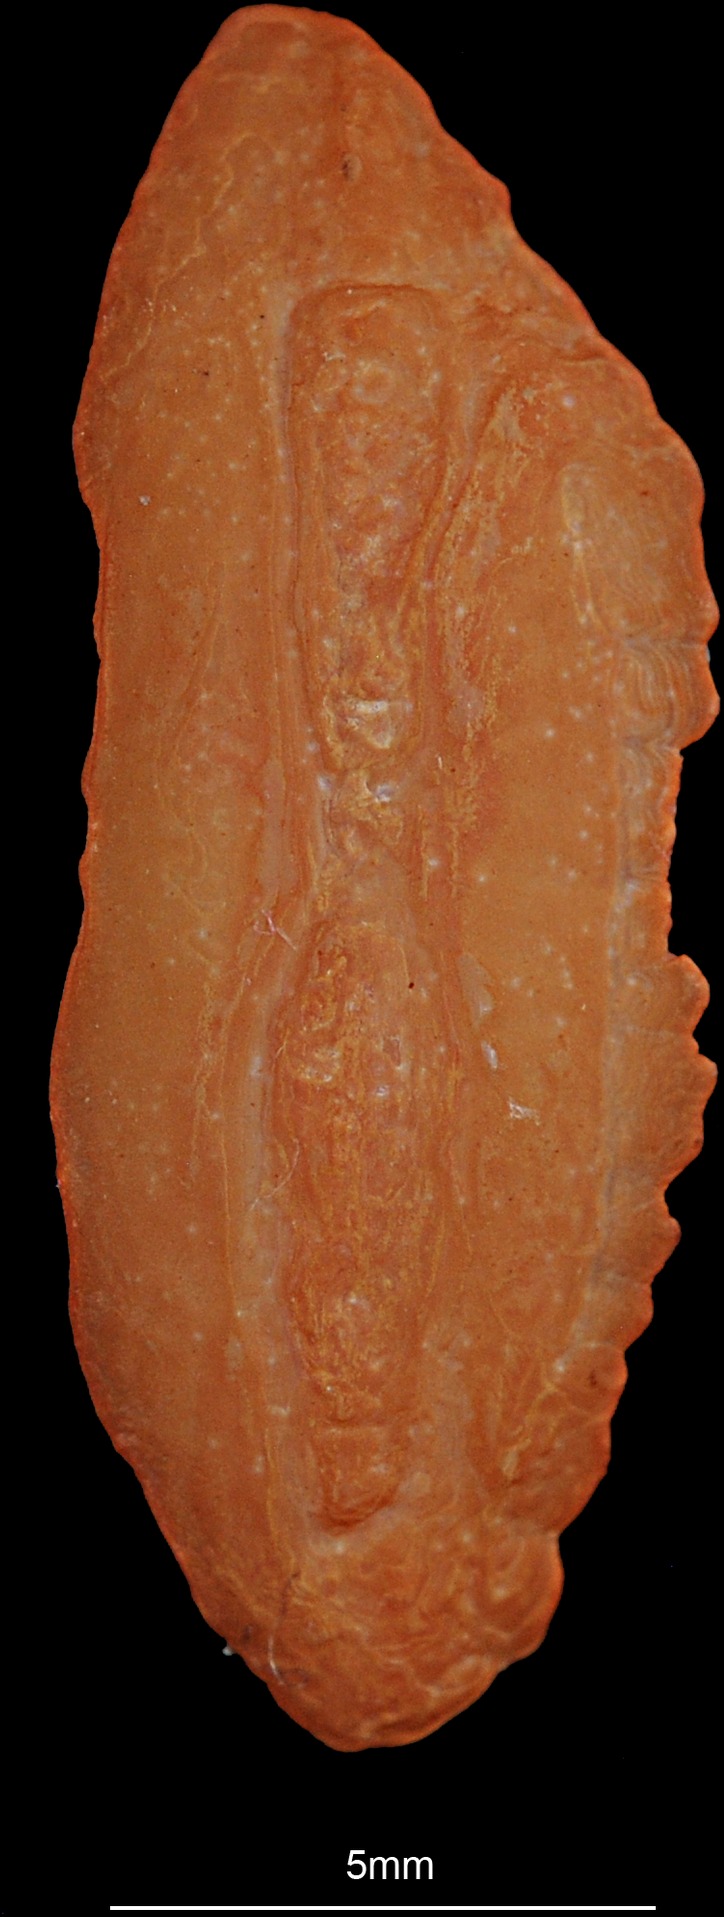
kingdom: Animalia
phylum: Chordata
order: Gadiformes
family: Lotidae
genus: Molva
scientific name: Molva molva
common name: Ling
